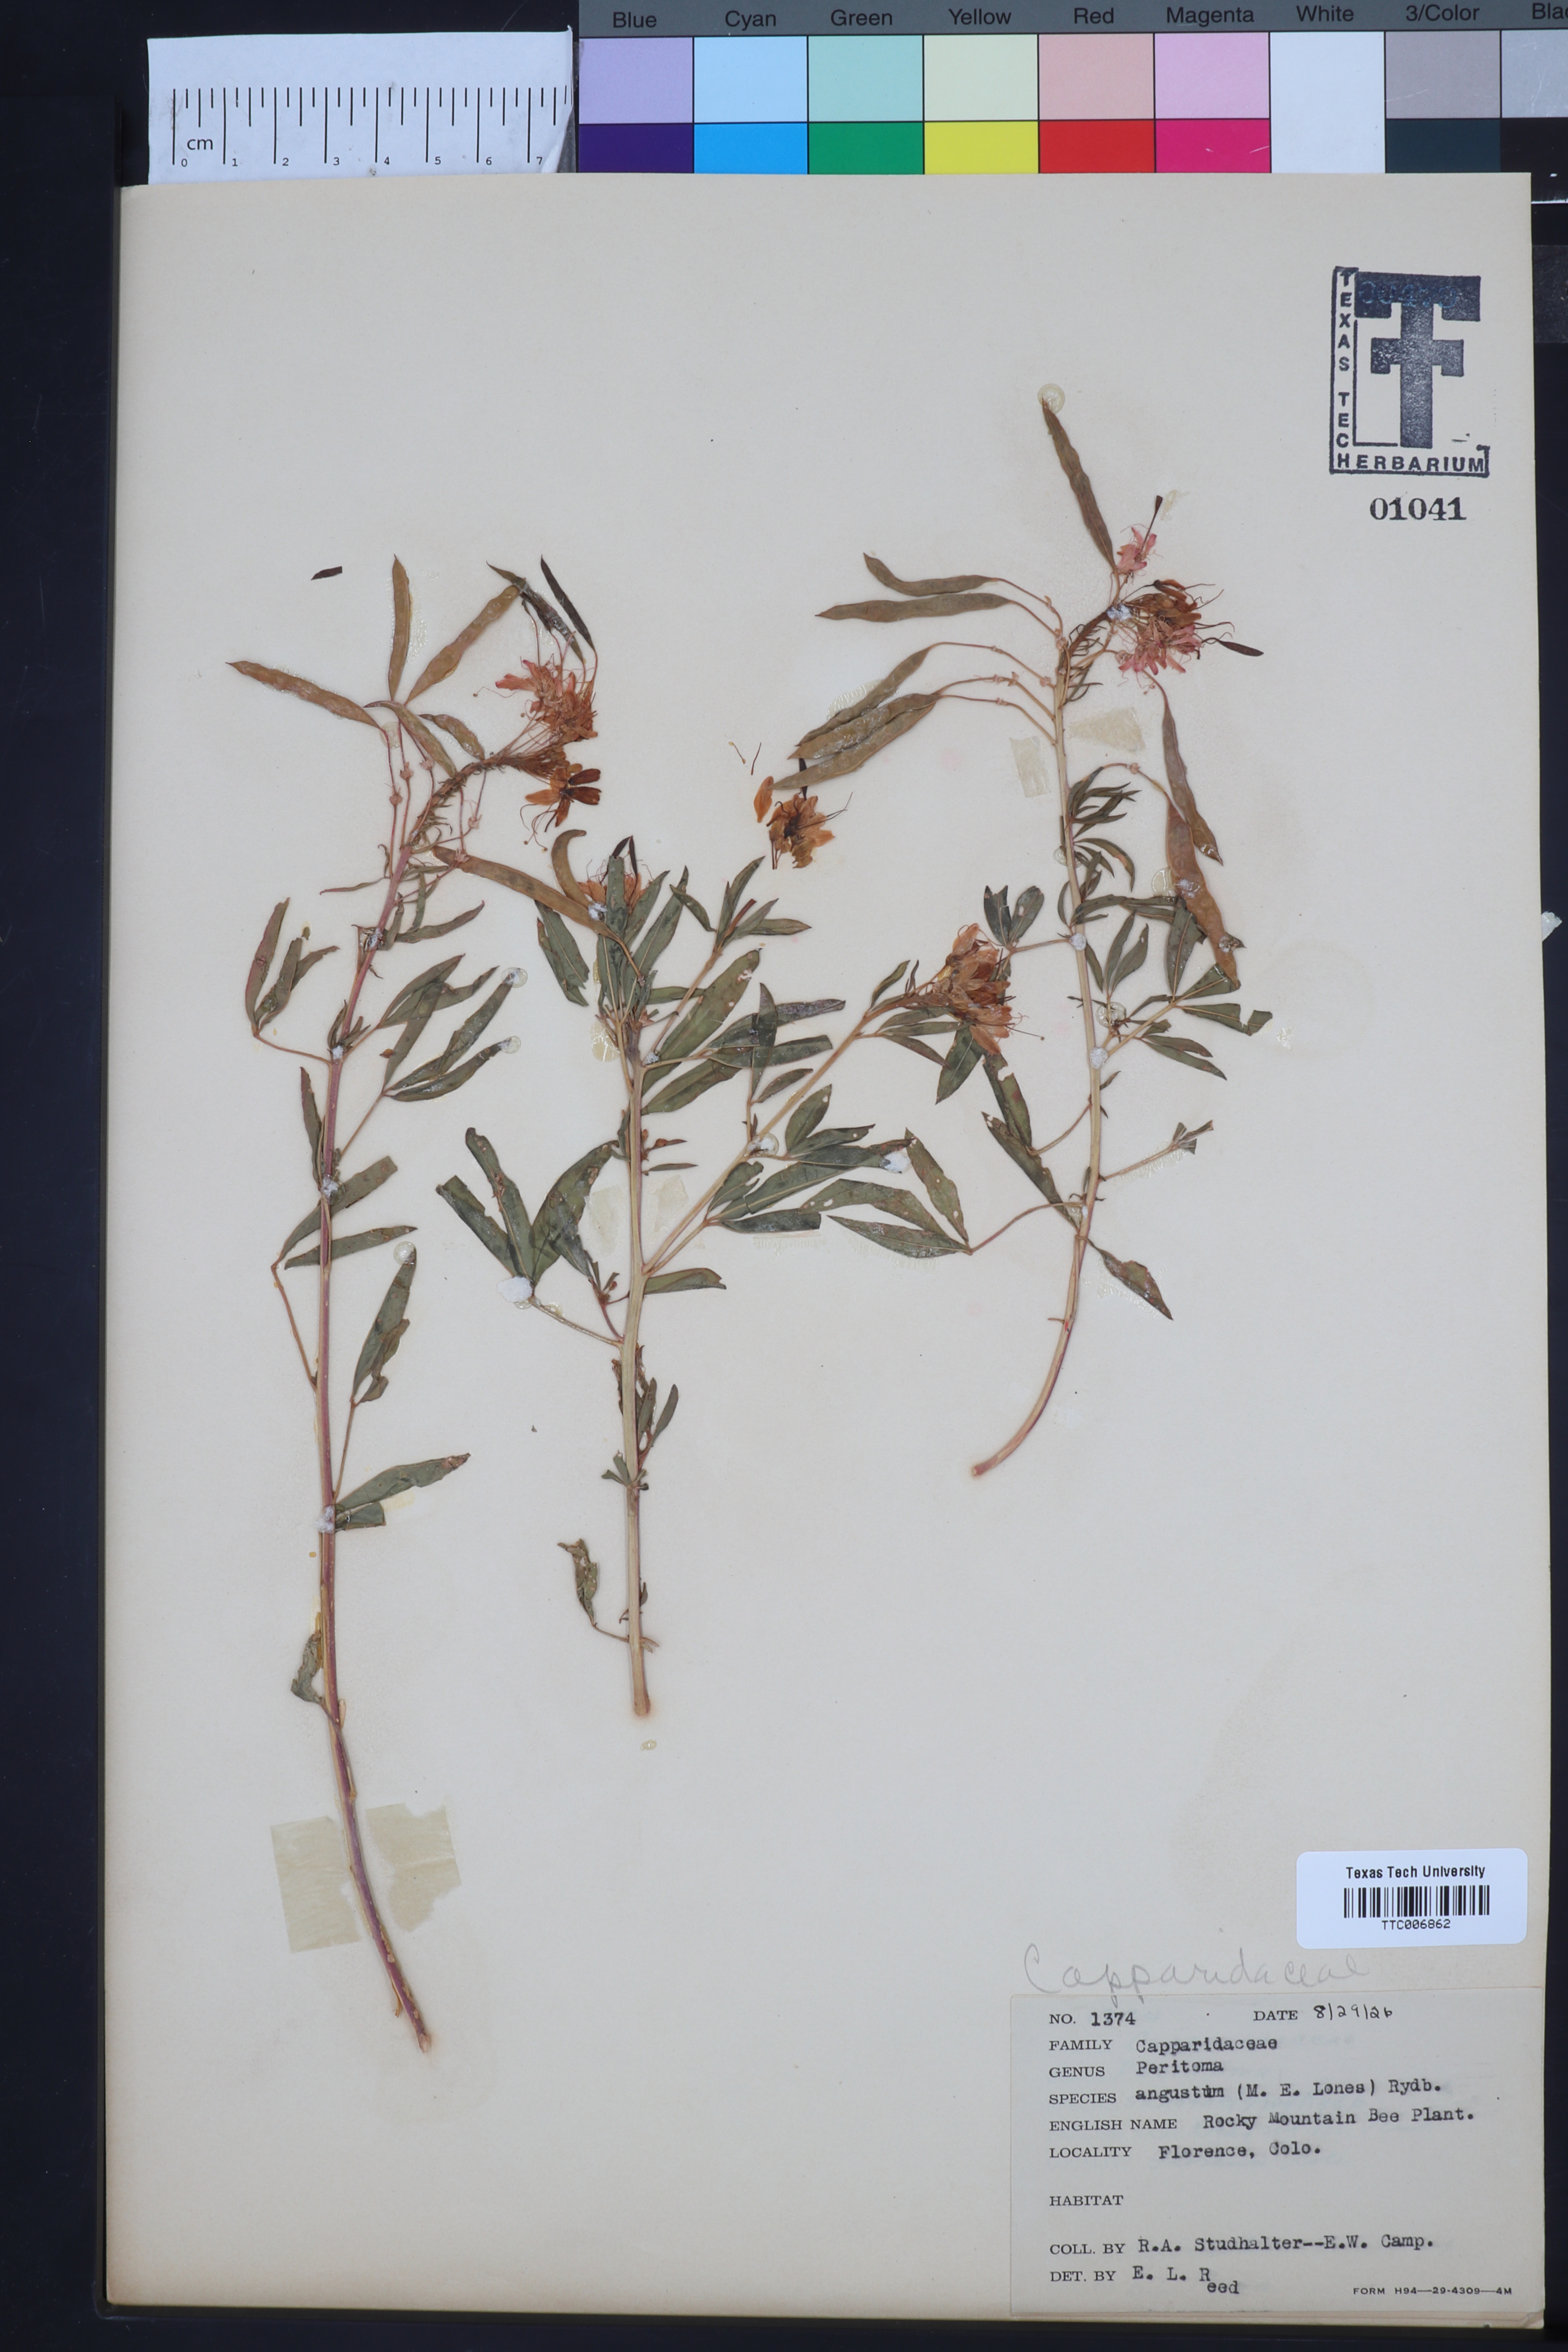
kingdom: Plantae
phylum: Tracheophyta
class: Magnoliopsida
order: Brassicales
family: Cleomaceae
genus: Cleomella
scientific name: Cleomella serrulata
